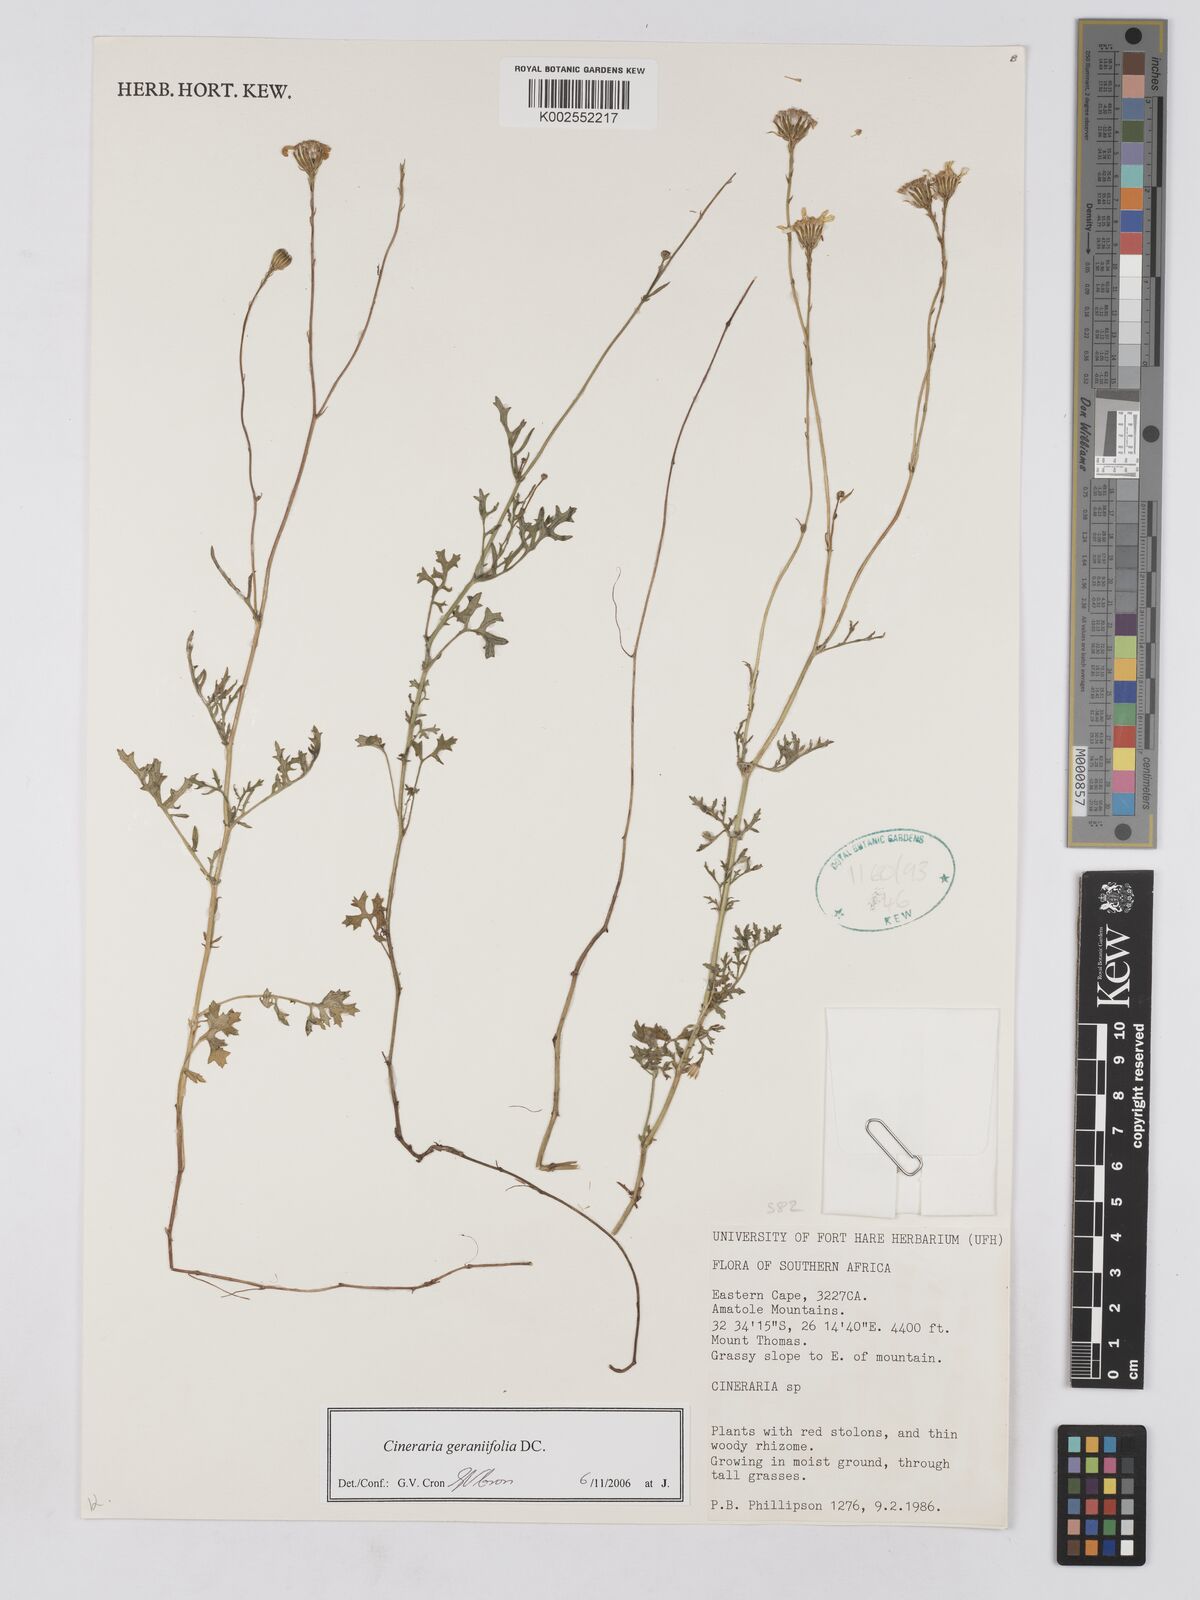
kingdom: Plantae
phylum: Tracheophyta
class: Magnoliopsida
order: Asterales
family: Asteraceae
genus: Cineraria
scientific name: Cineraria geraniifolia
